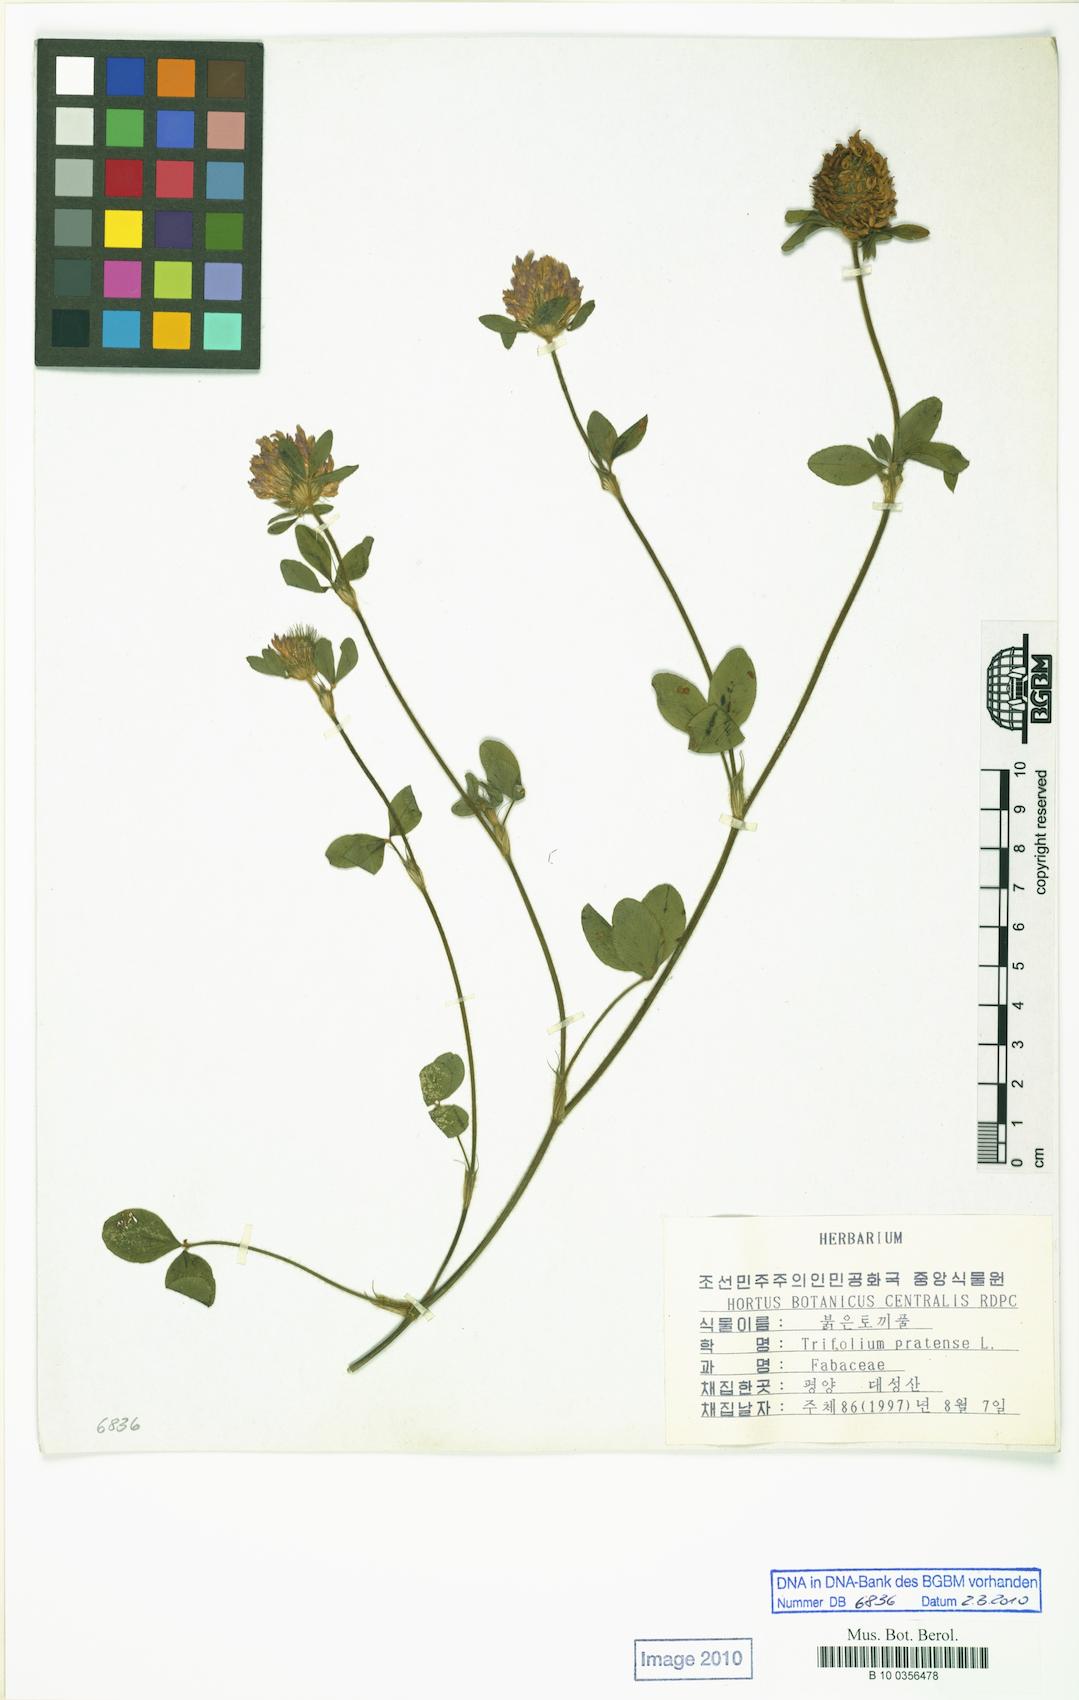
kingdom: Plantae
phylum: Tracheophyta
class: Magnoliopsida
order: Fabales
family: Fabaceae
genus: Trifolium
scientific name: Trifolium pratense
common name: Red clover
